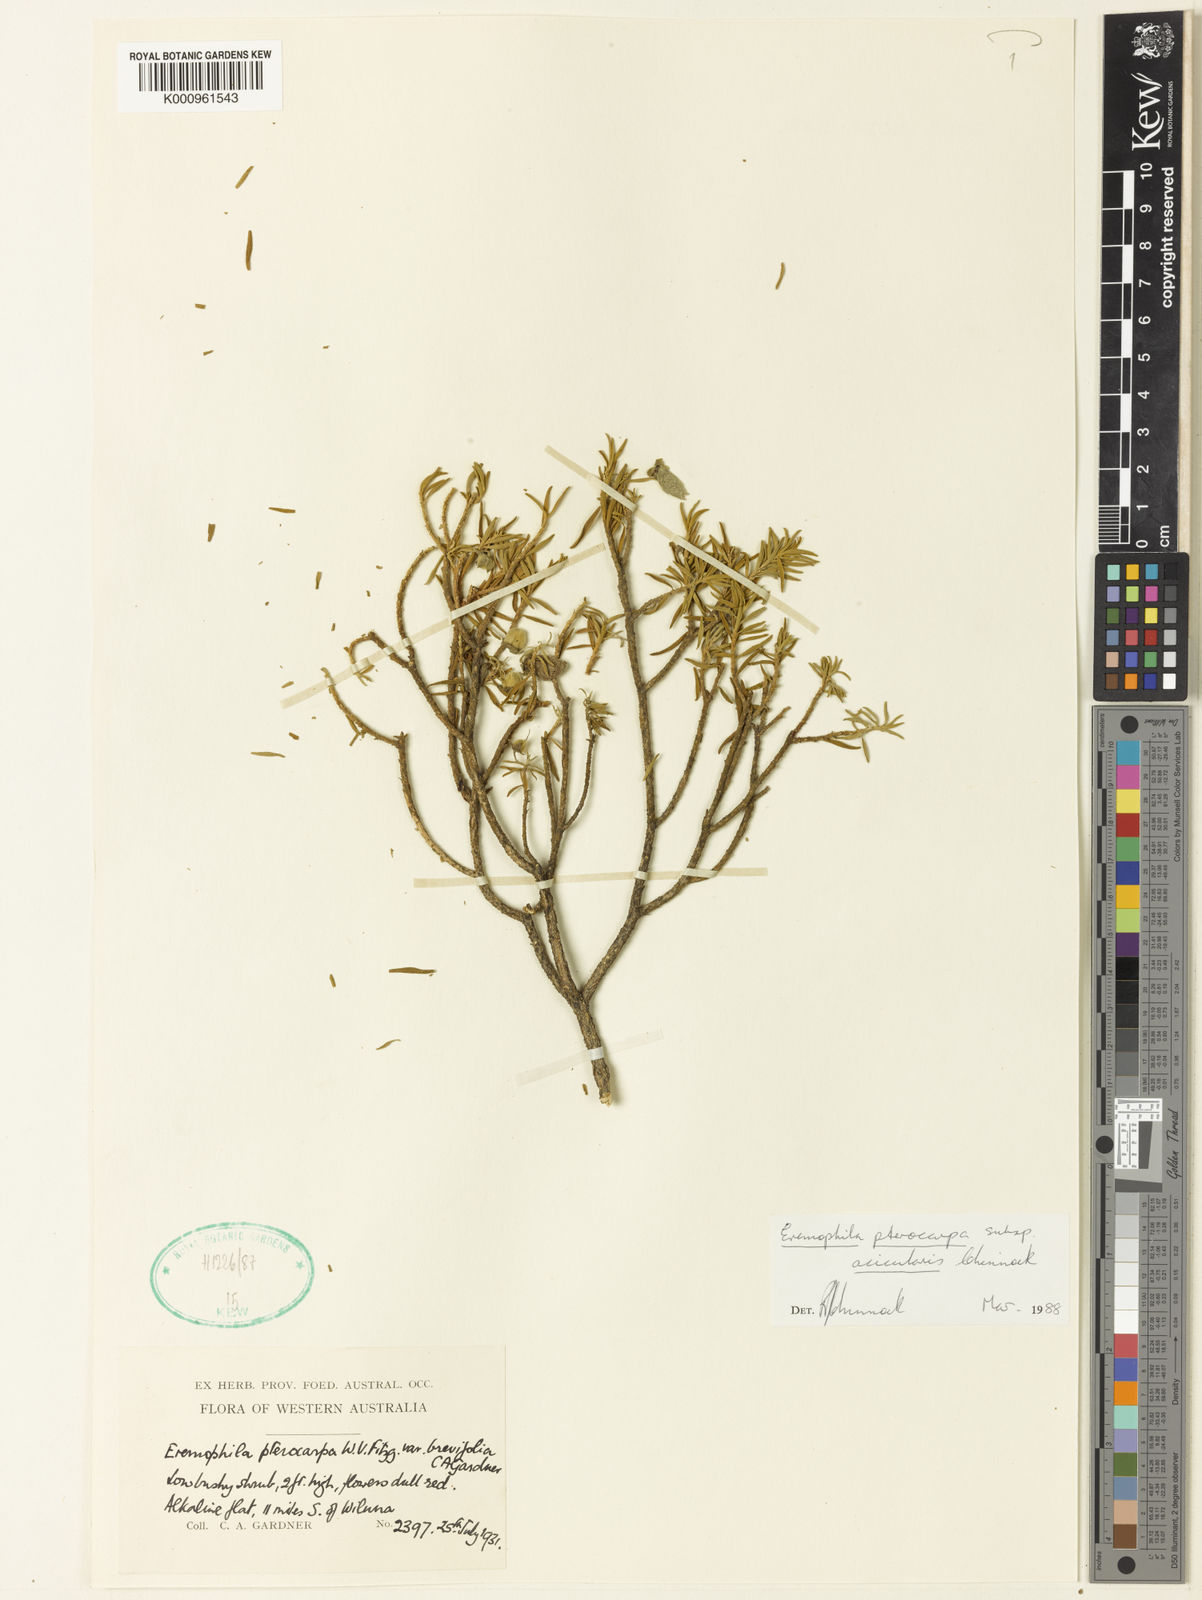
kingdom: Plantae
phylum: Tracheophyta
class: Magnoliopsida
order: Lamiales
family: Scrophulariaceae
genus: Eremophila
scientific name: Eremophila pterocarpa
